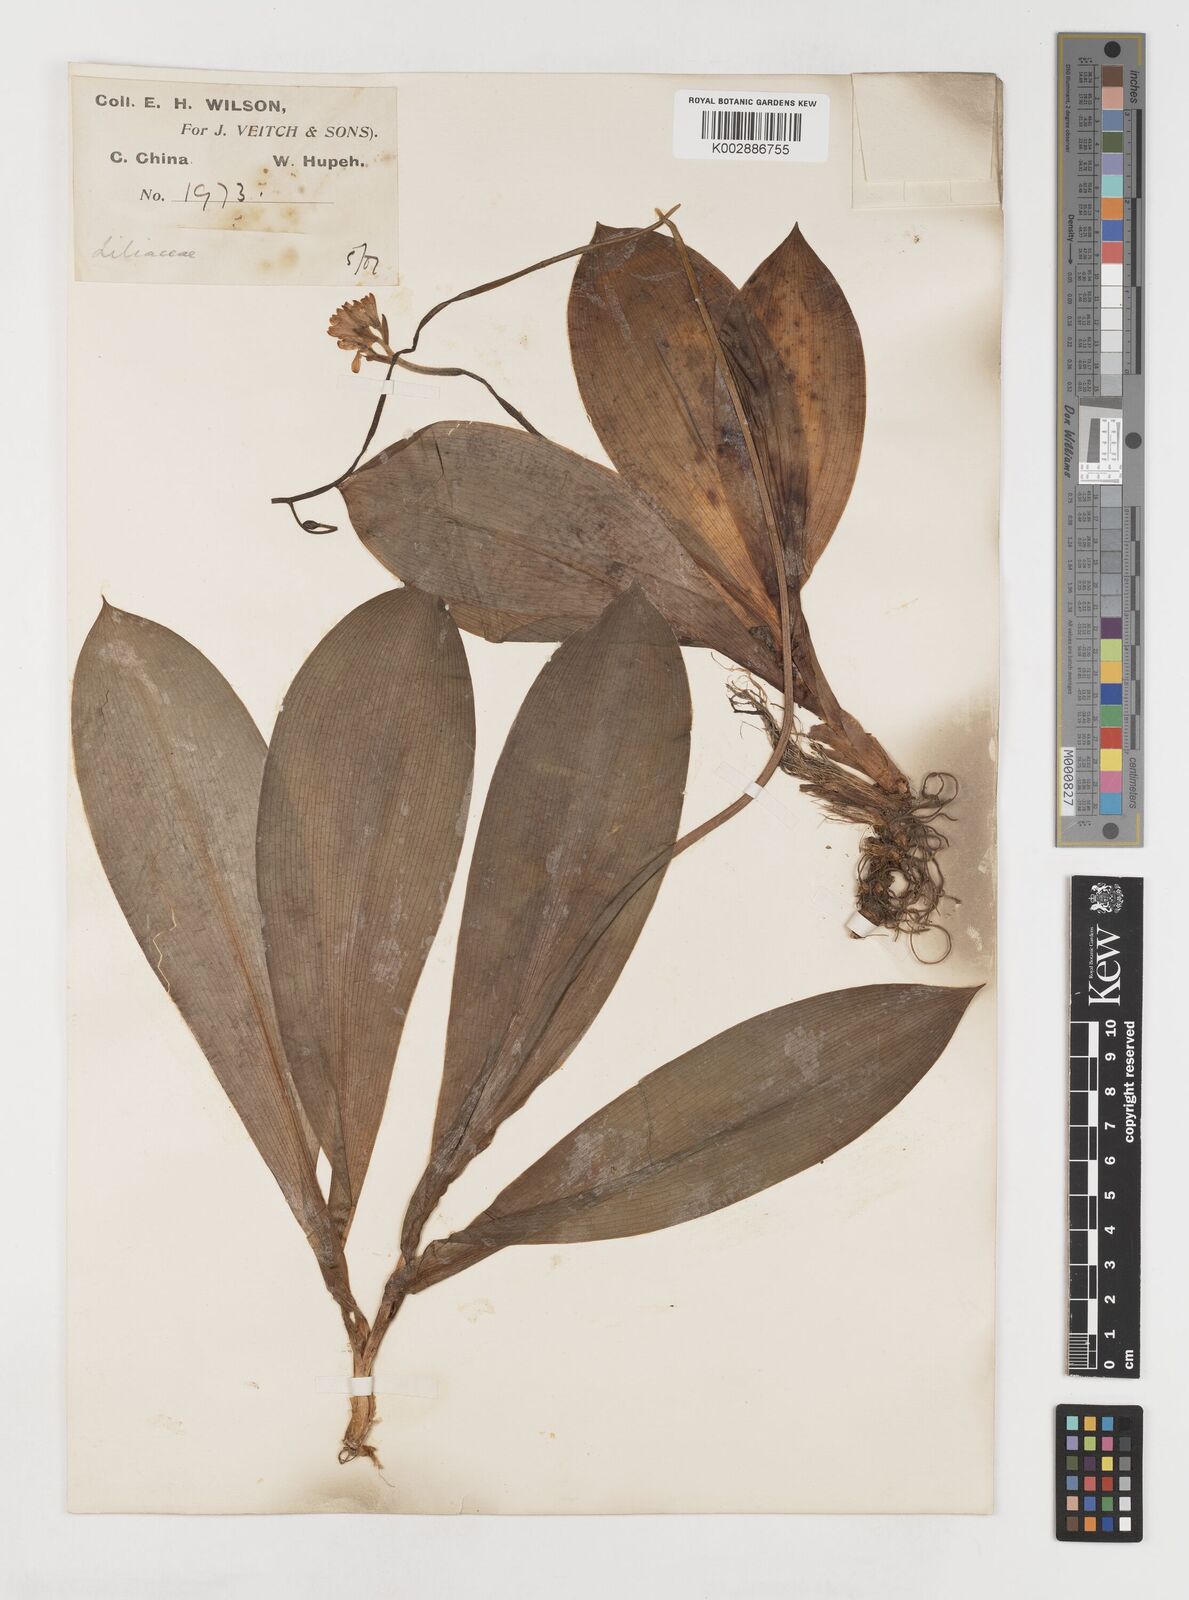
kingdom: Plantae
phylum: Tracheophyta
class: Liliopsida
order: Liliales
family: Liliaceae
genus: Clintonia
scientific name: Clintonia udensis
